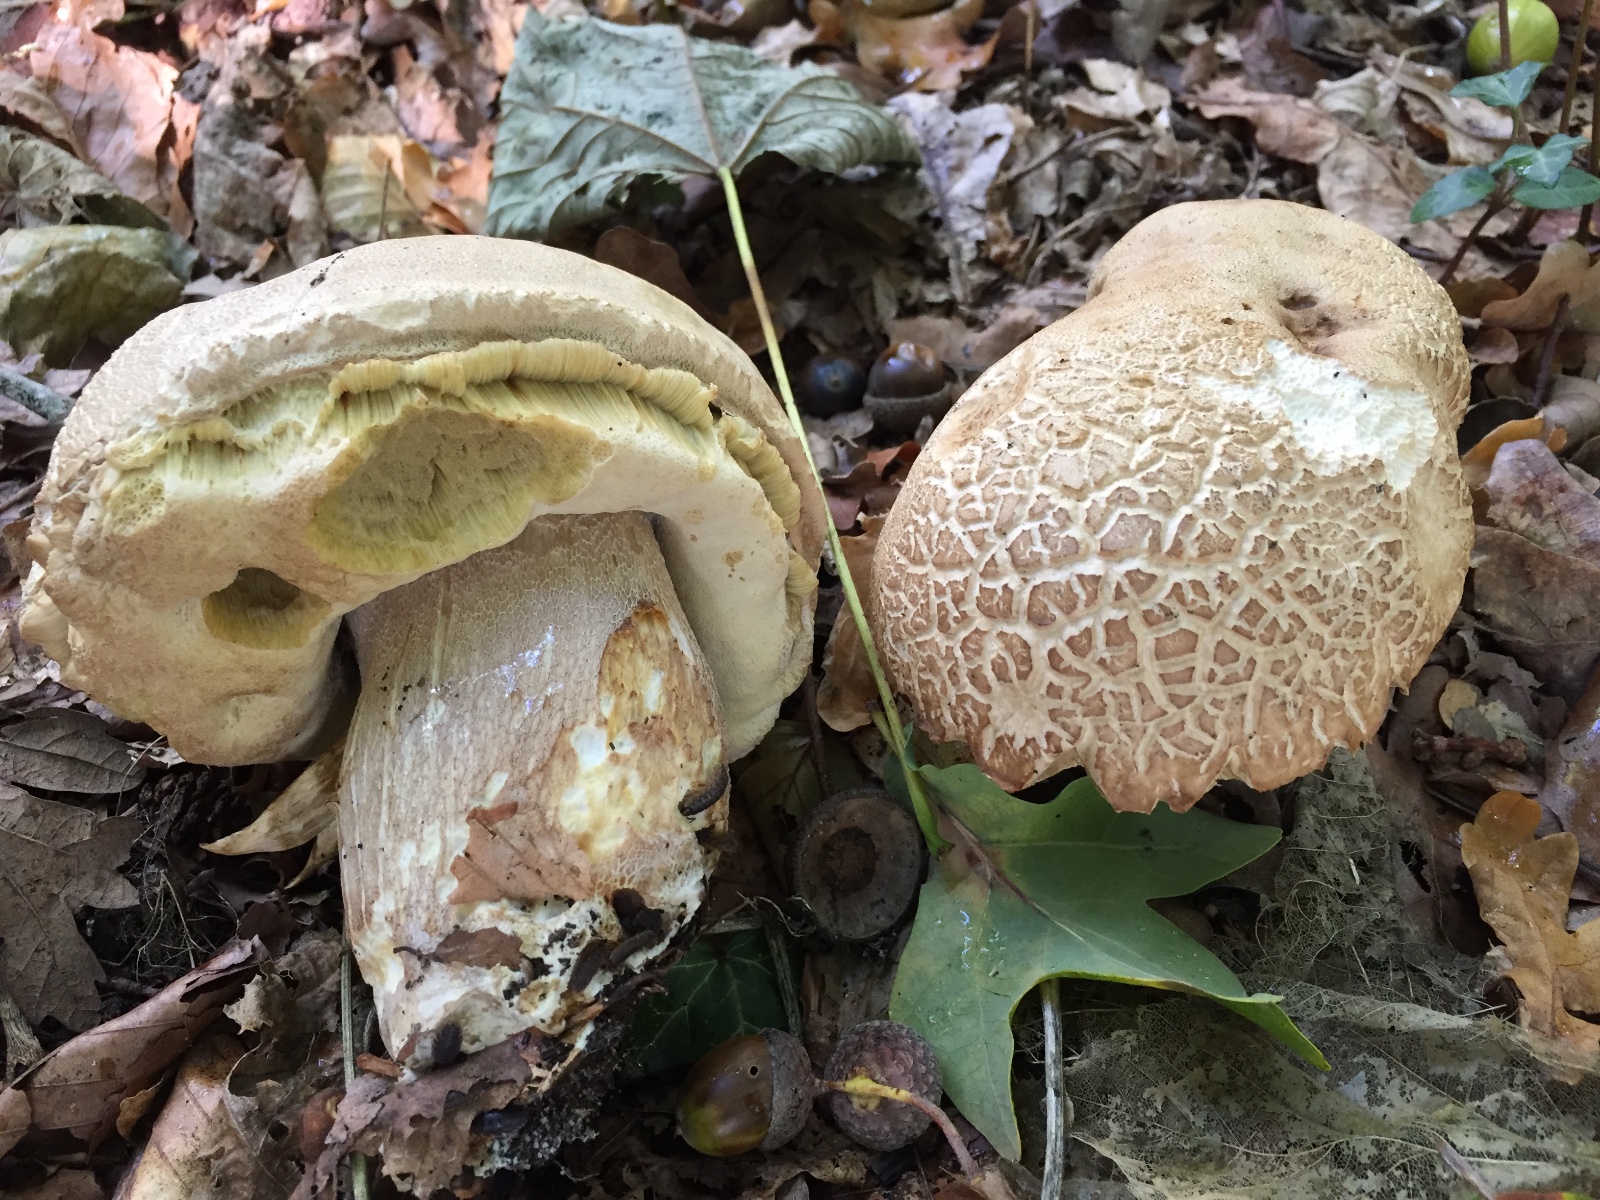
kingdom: Fungi
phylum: Basidiomycota
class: Agaricomycetes
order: Boletales
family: Boletaceae
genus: Boletus
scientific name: Boletus reticulatus
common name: sommer-rørhat
